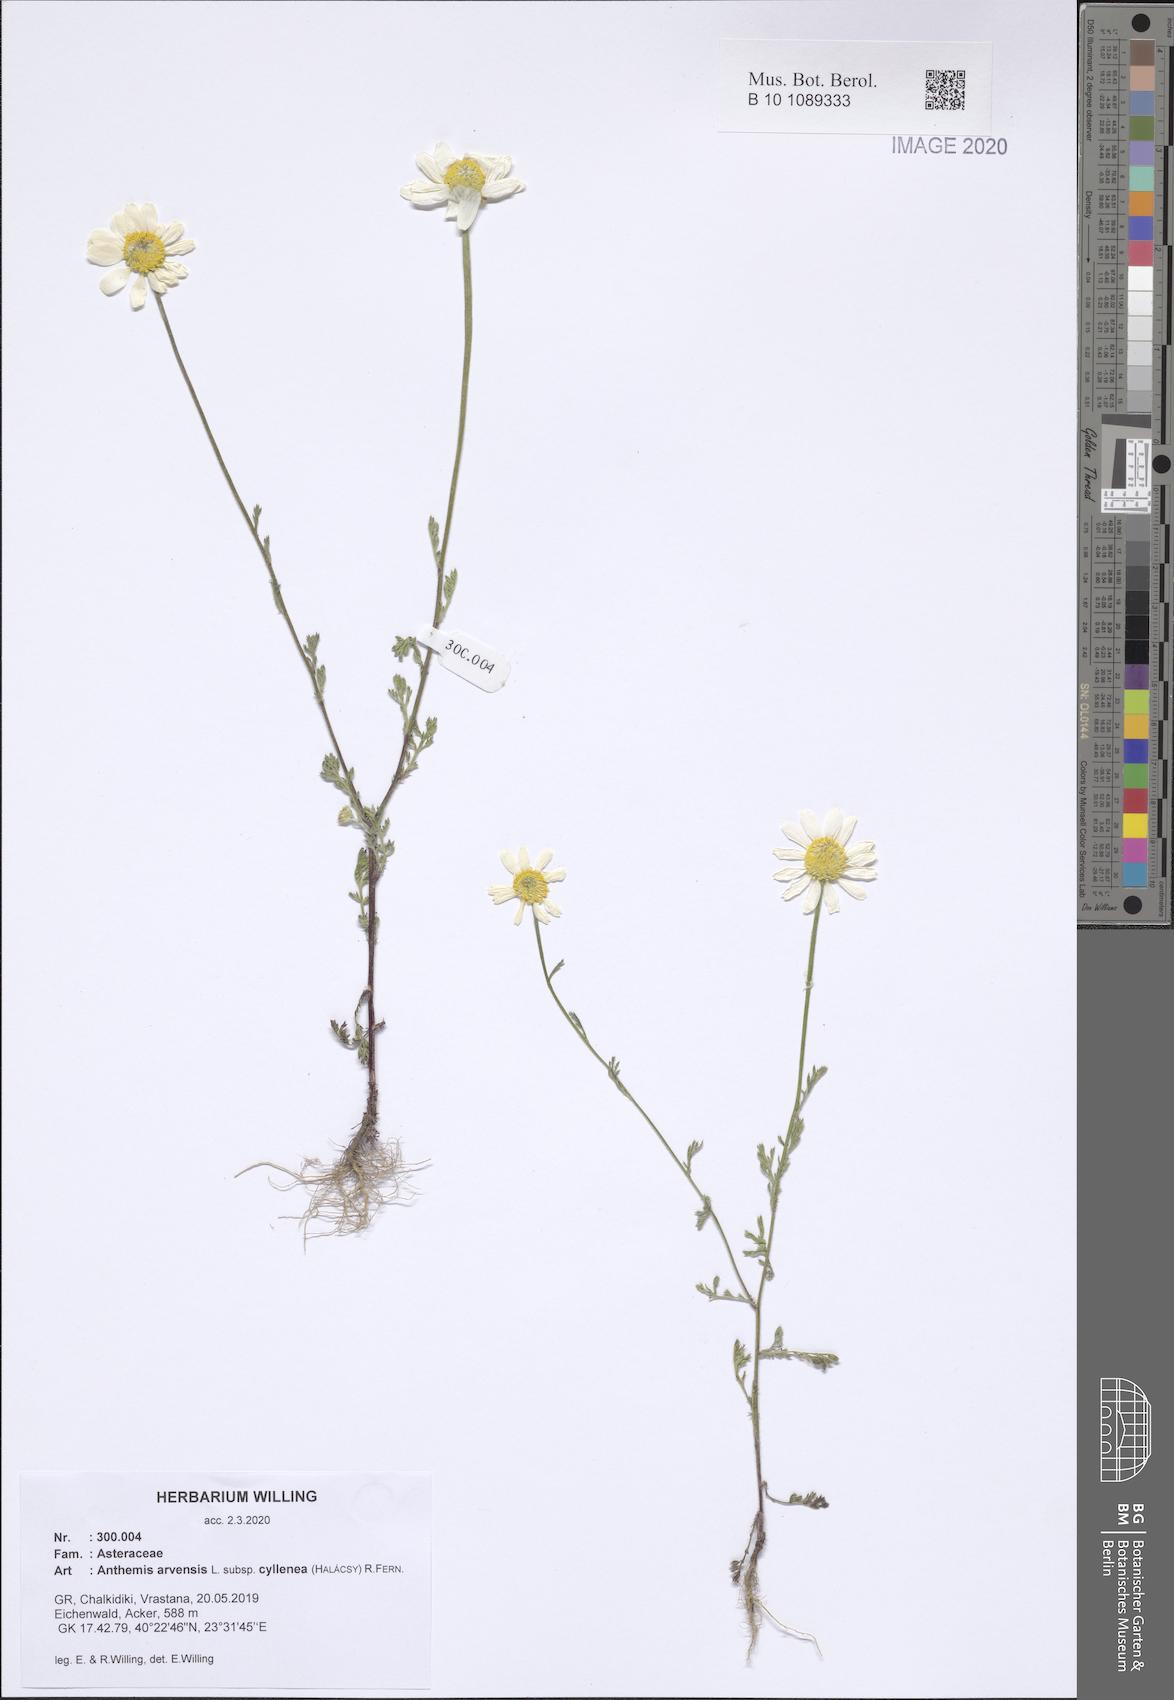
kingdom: Plantae
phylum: Tracheophyta
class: Magnoliopsida
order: Asterales
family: Asteraceae
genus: Anthemis
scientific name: Anthemis arvensis
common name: Corn chamomile
